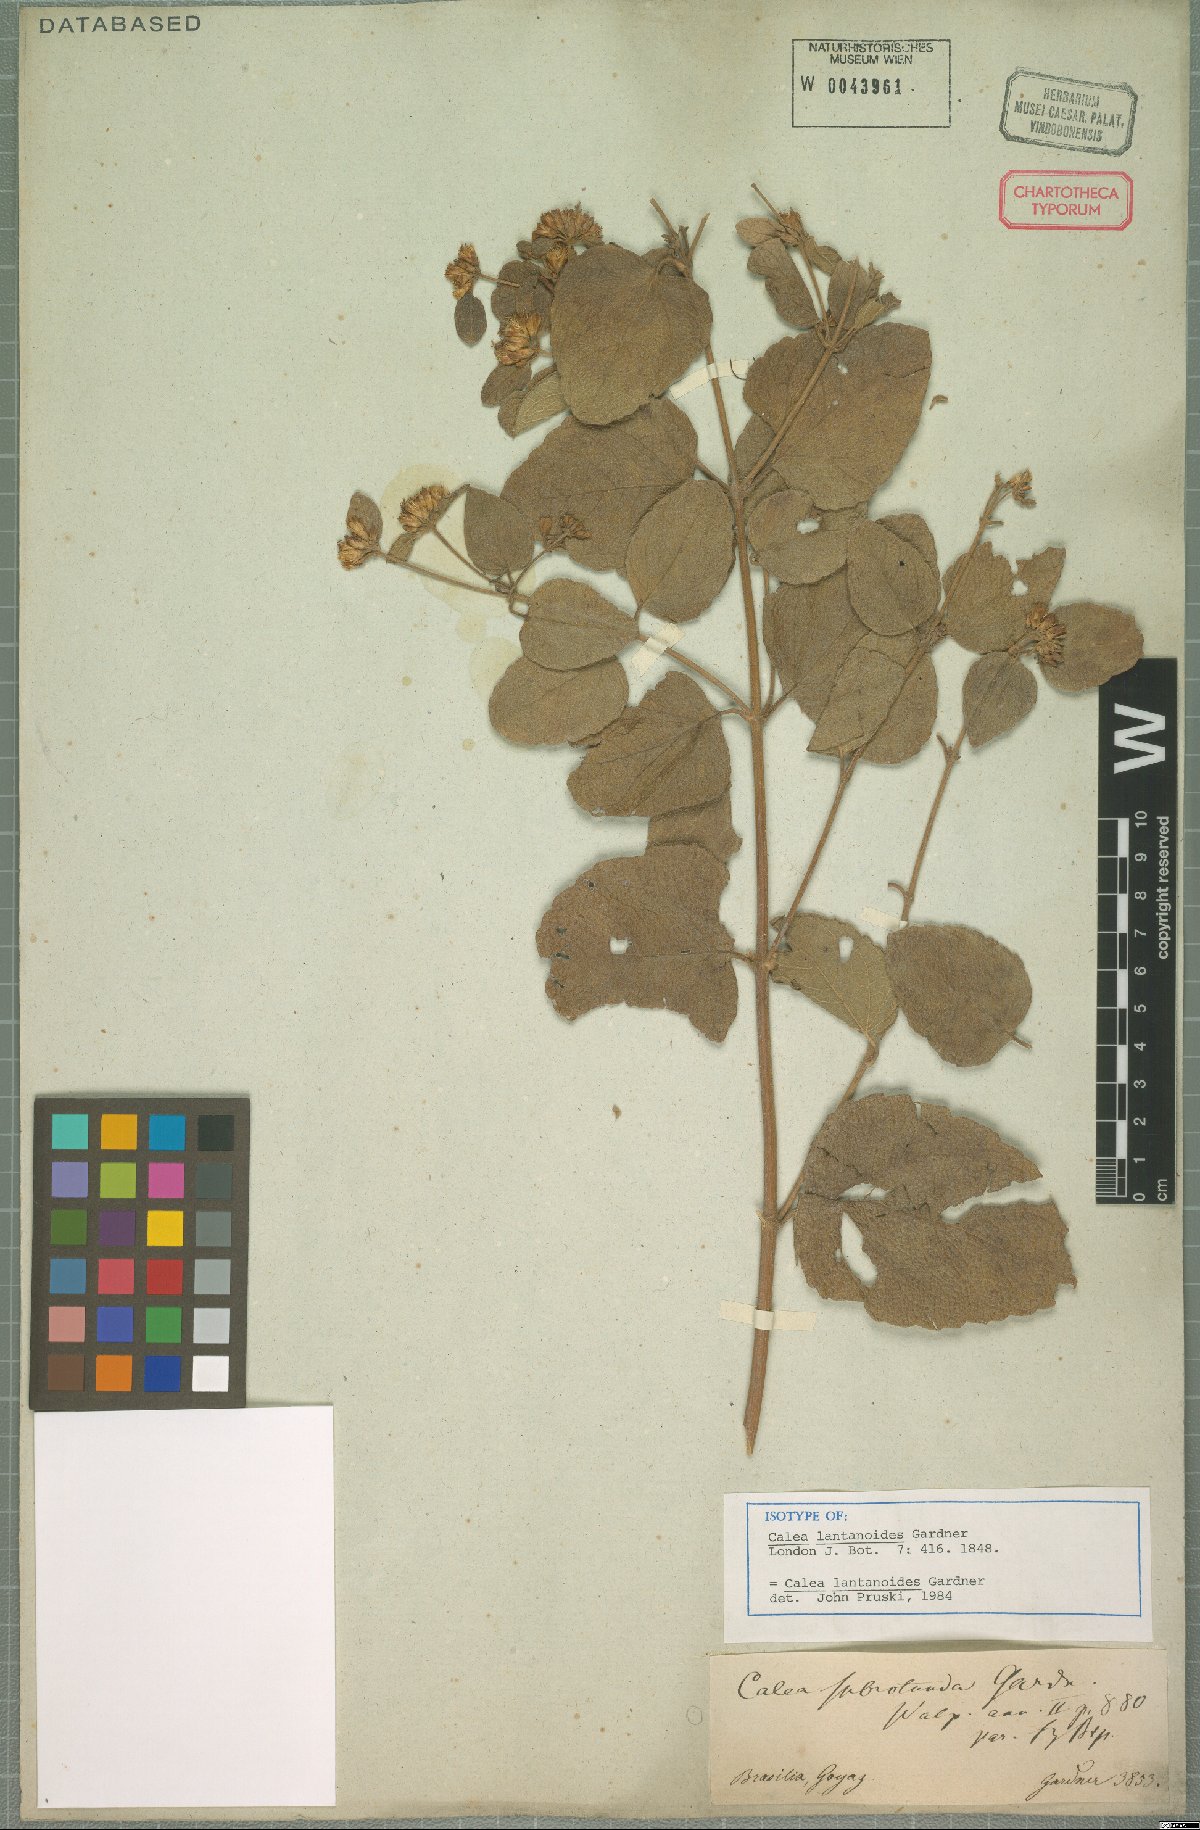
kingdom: Plantae
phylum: Tracheophyta
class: Magnoliopsida
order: Asterales
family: Asteraceae
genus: Calea
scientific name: Calea lantanoides
